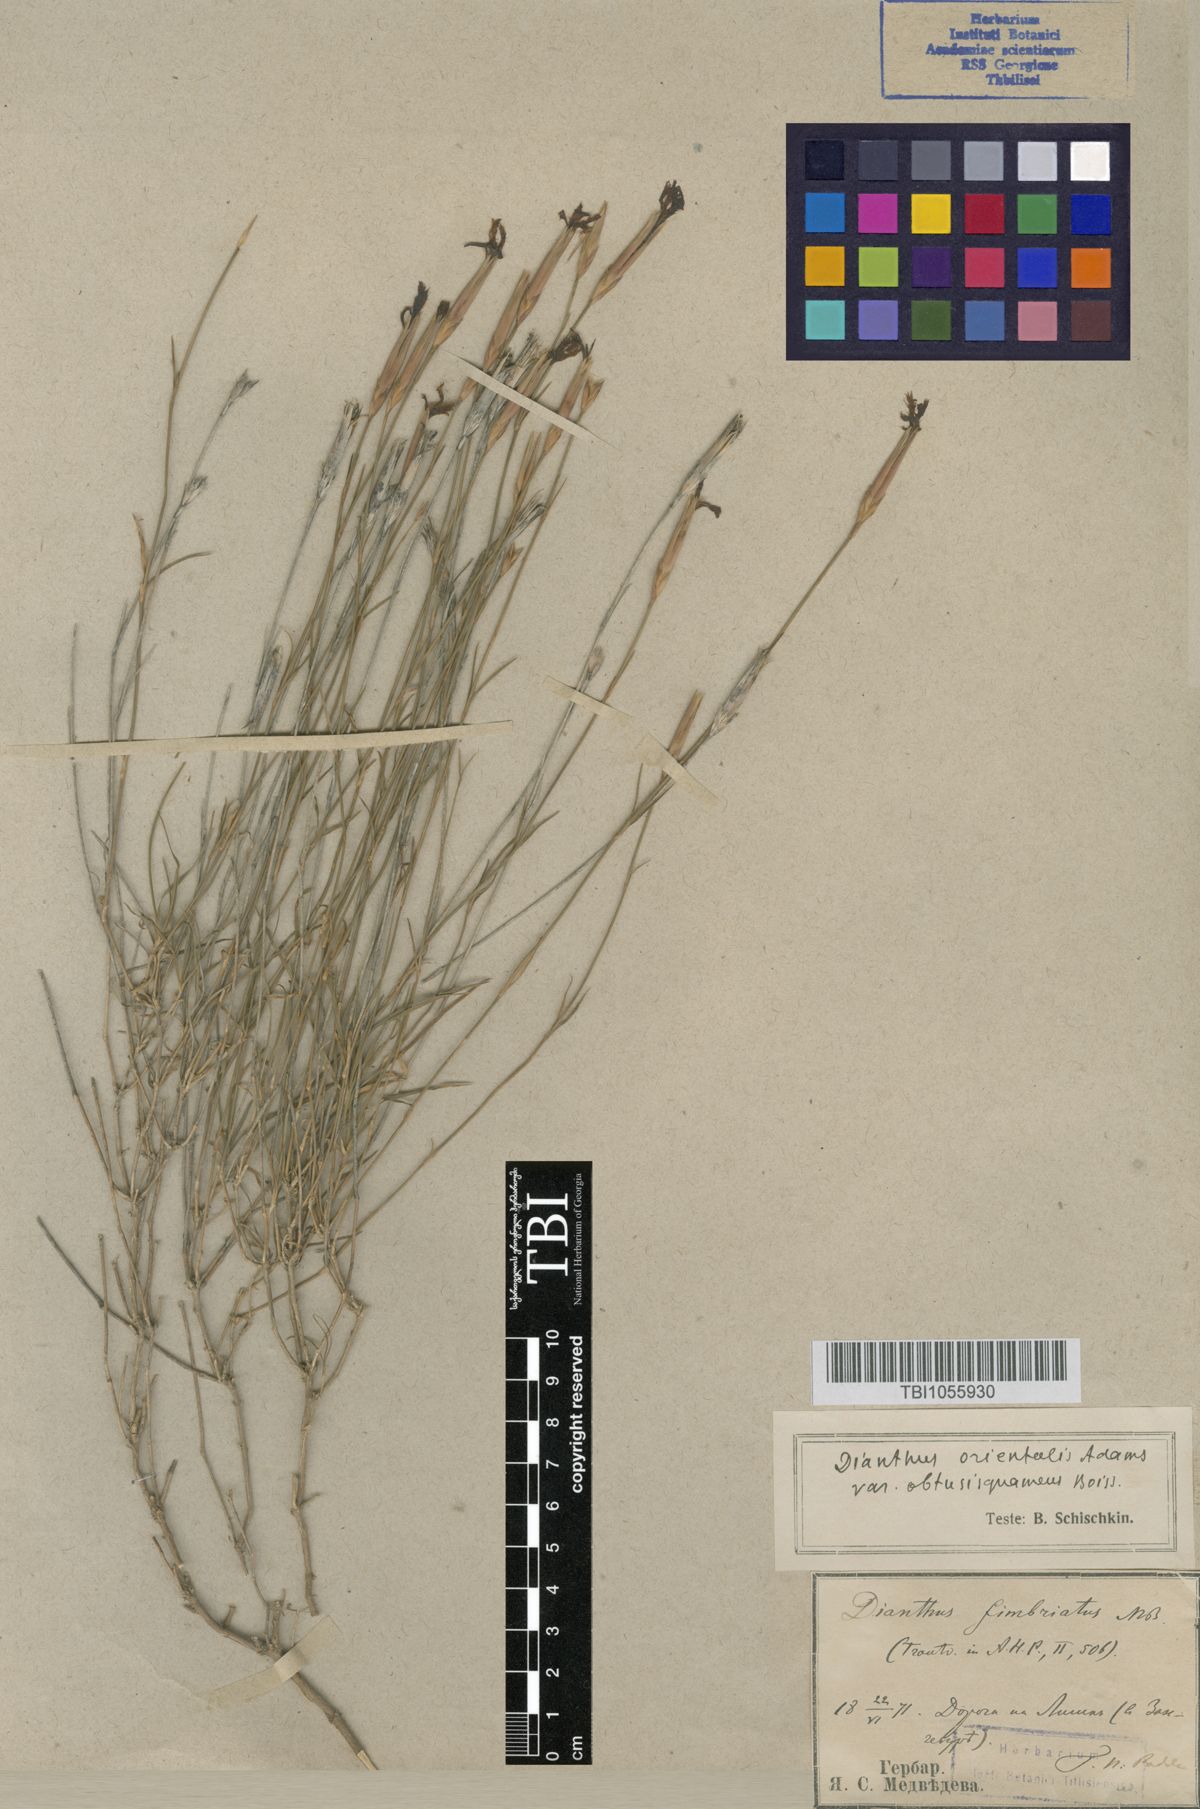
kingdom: Plantae
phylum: Tracheophyta
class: Magnoliopsida
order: Caryophyllales
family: Caryophyllaceae
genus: Dianthus
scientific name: Dianthus orientalis
